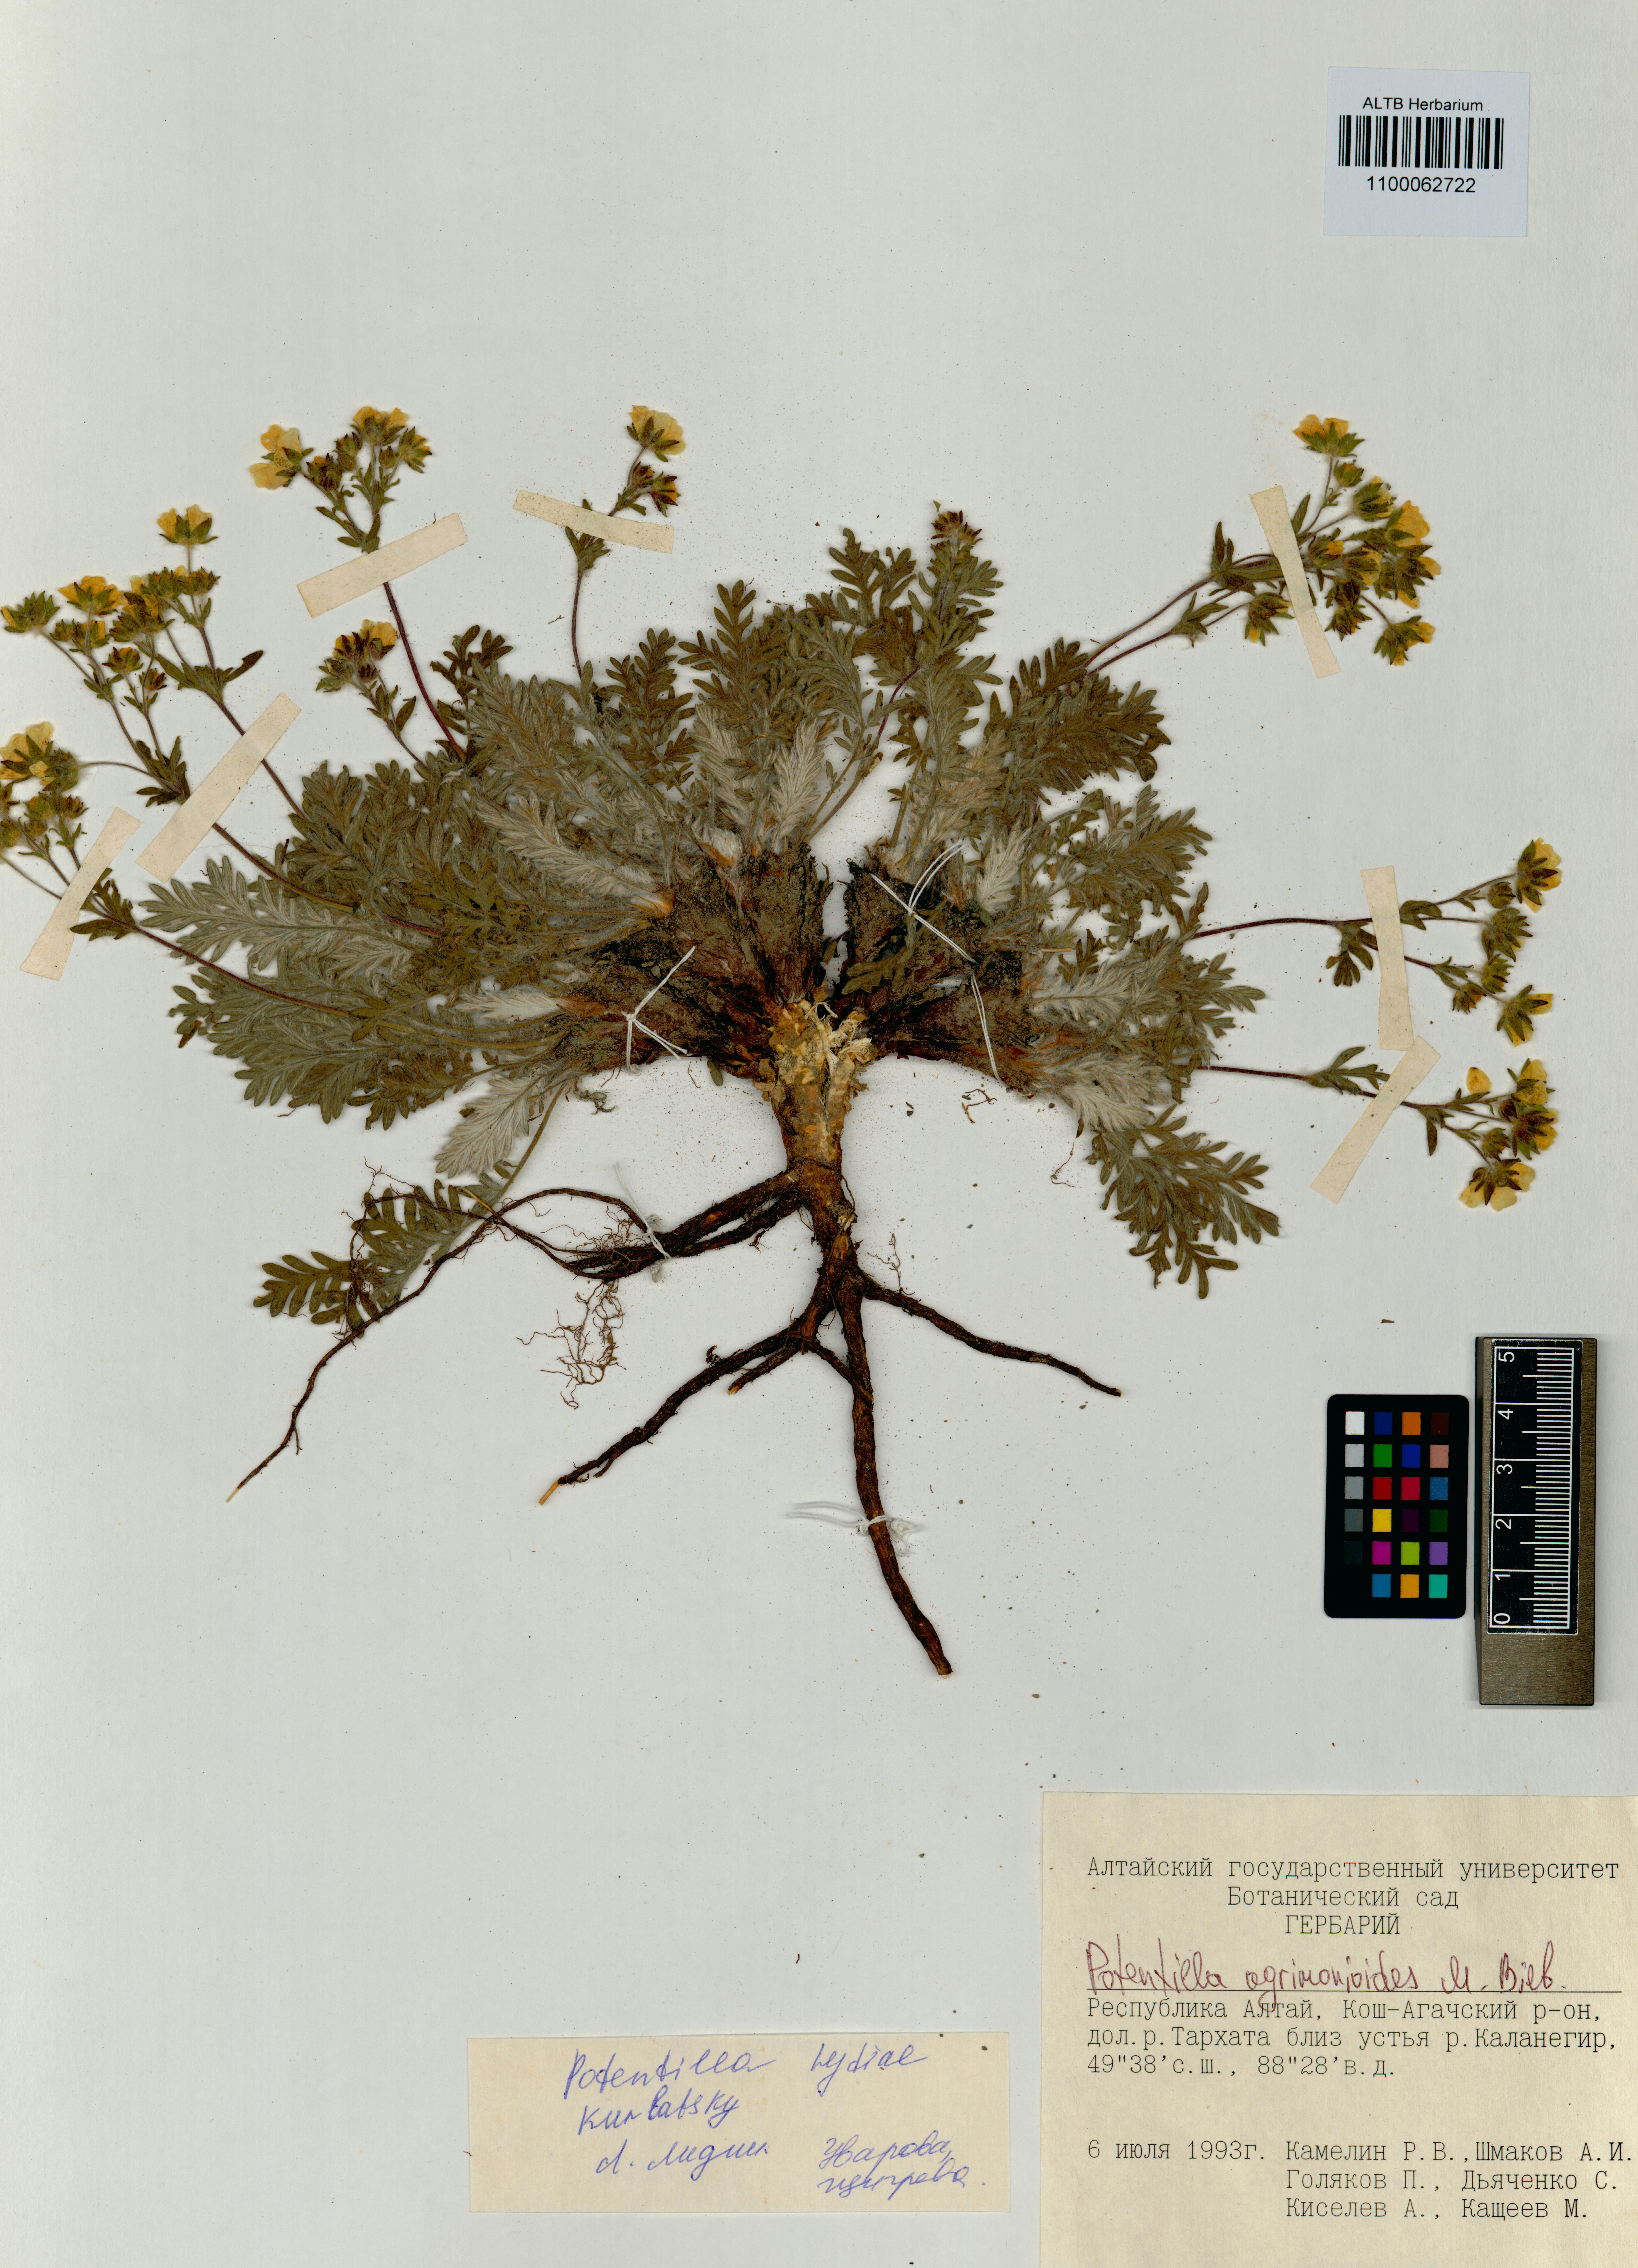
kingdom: Plantae
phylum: Tracheophyta
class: Magnoliopsida
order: Rosales
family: Rosaceae
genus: Potentilla
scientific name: Potentilla agrimonioides
